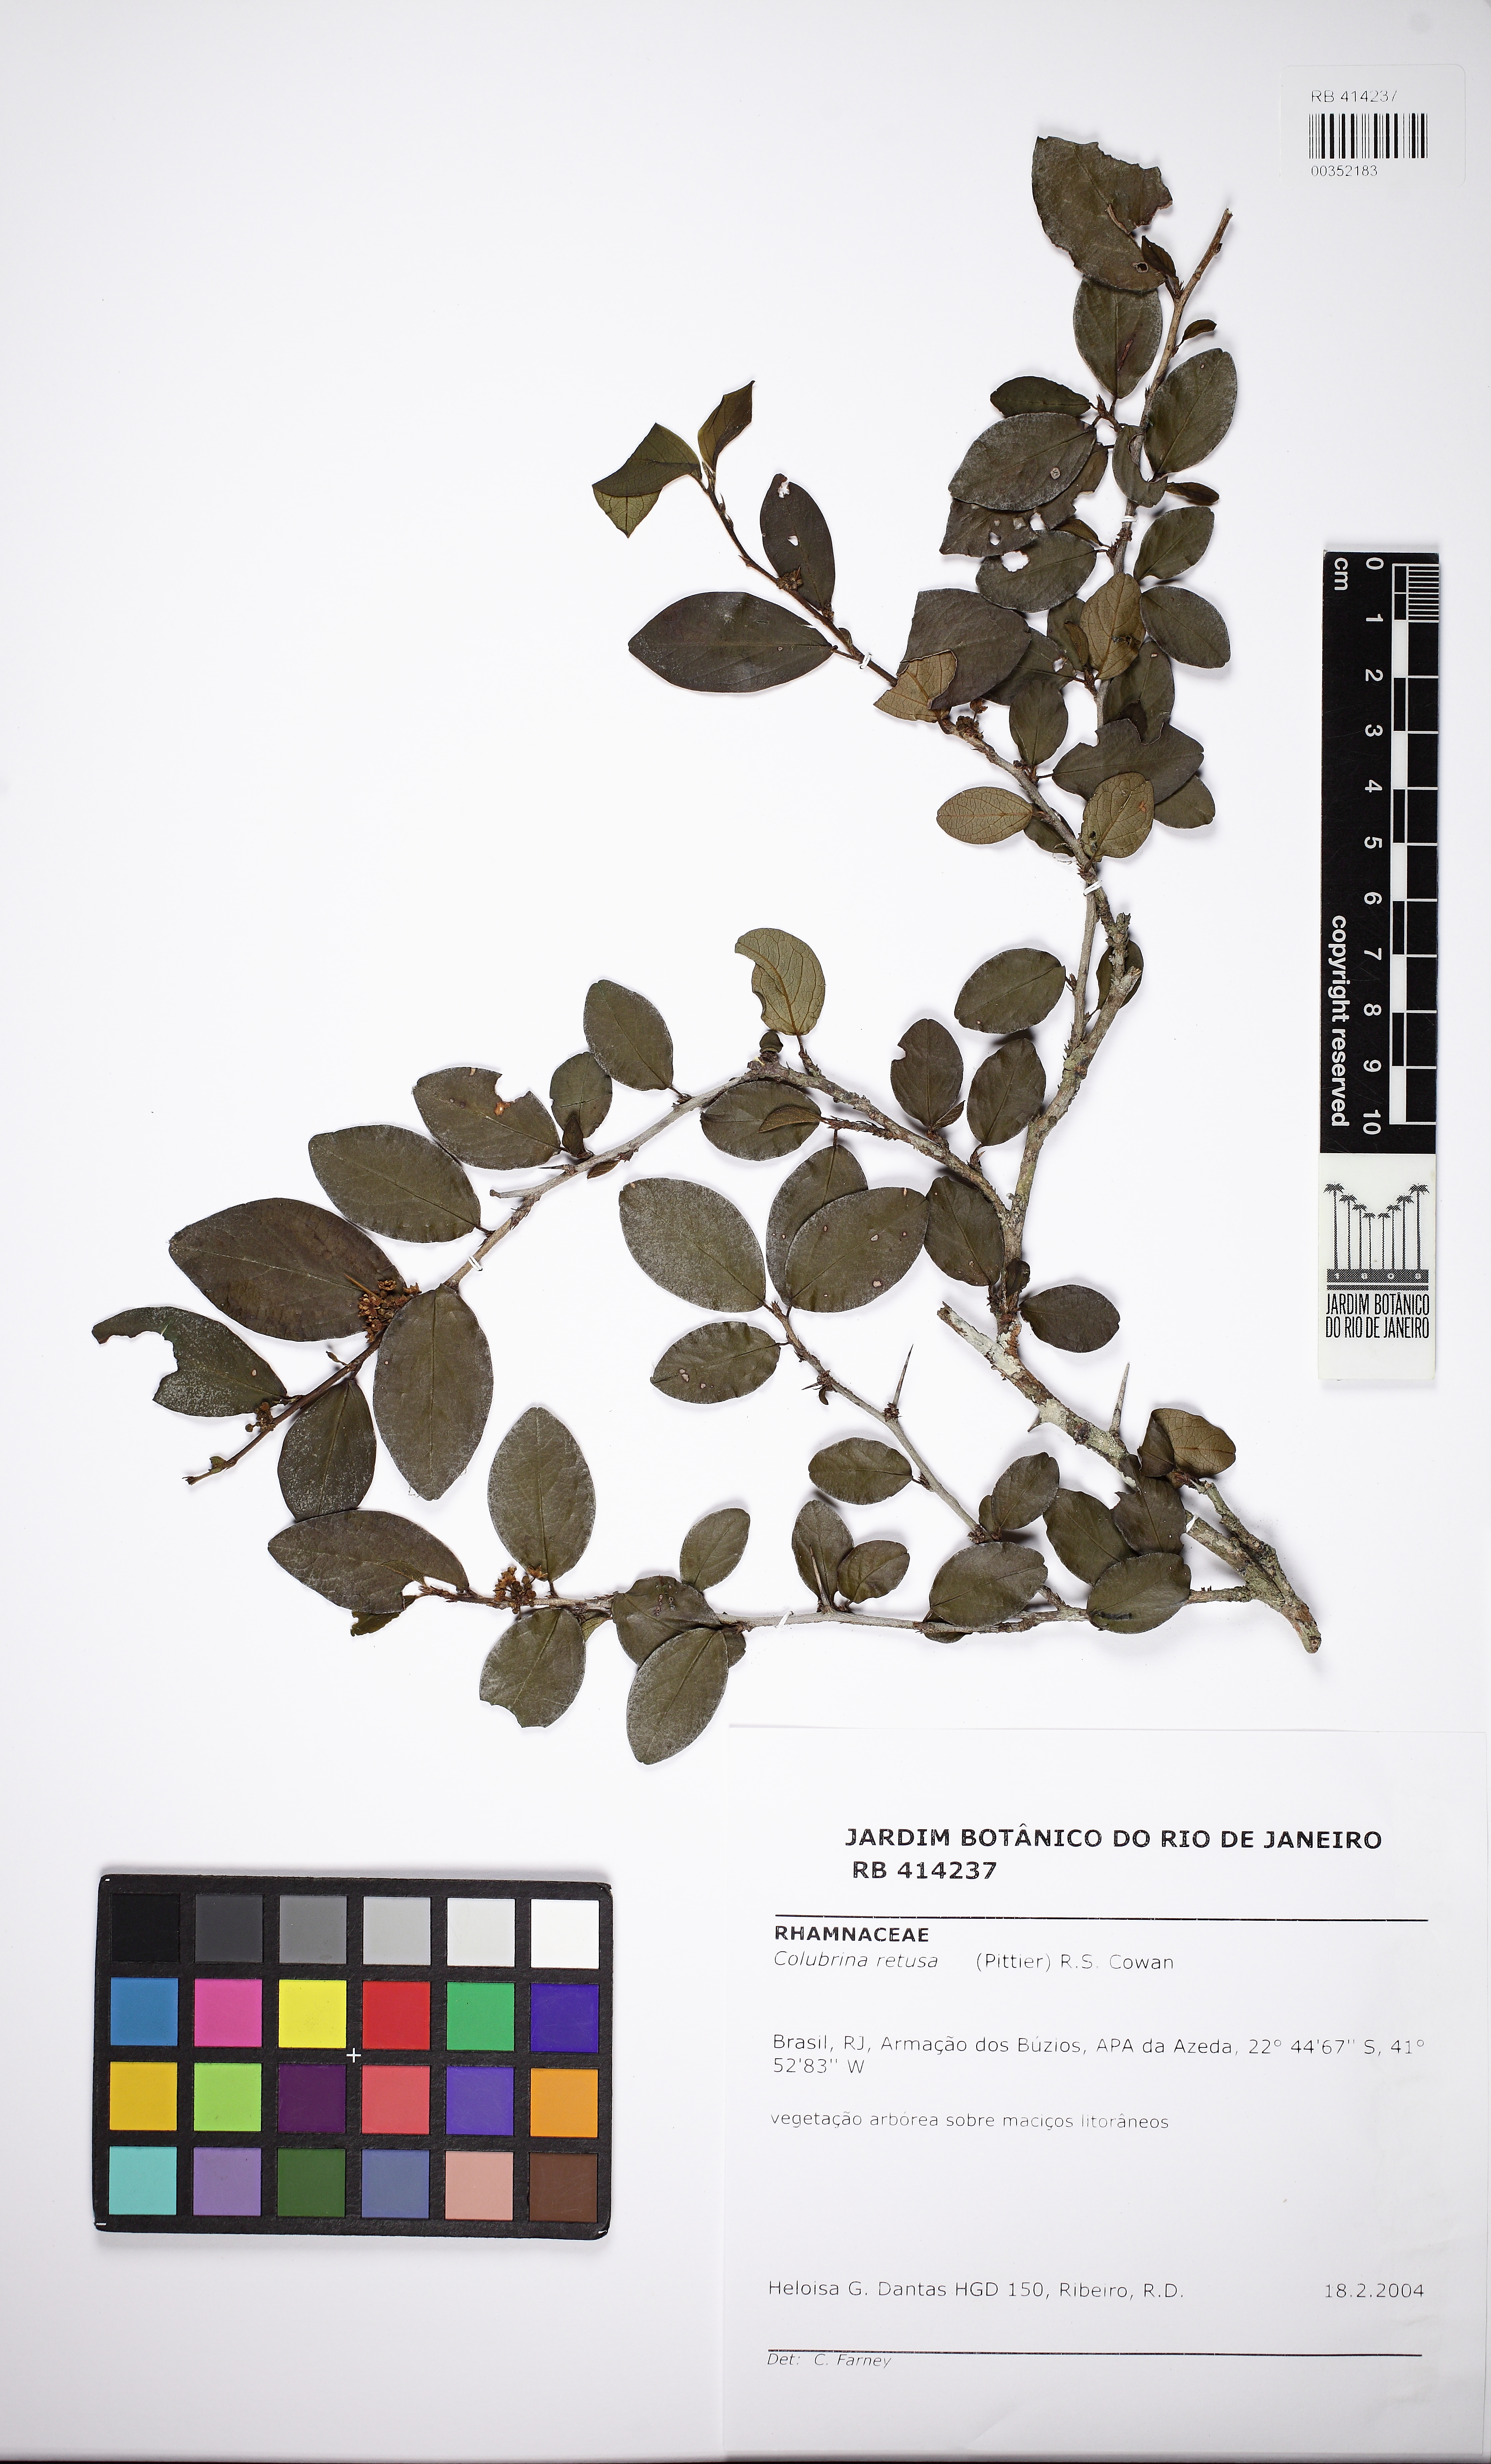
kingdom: Plantae
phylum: Tracheophyta
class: Magnoliopsida
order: Rosales
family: Rhamnaceae
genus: Colubrina
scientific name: Colubrina retusa
